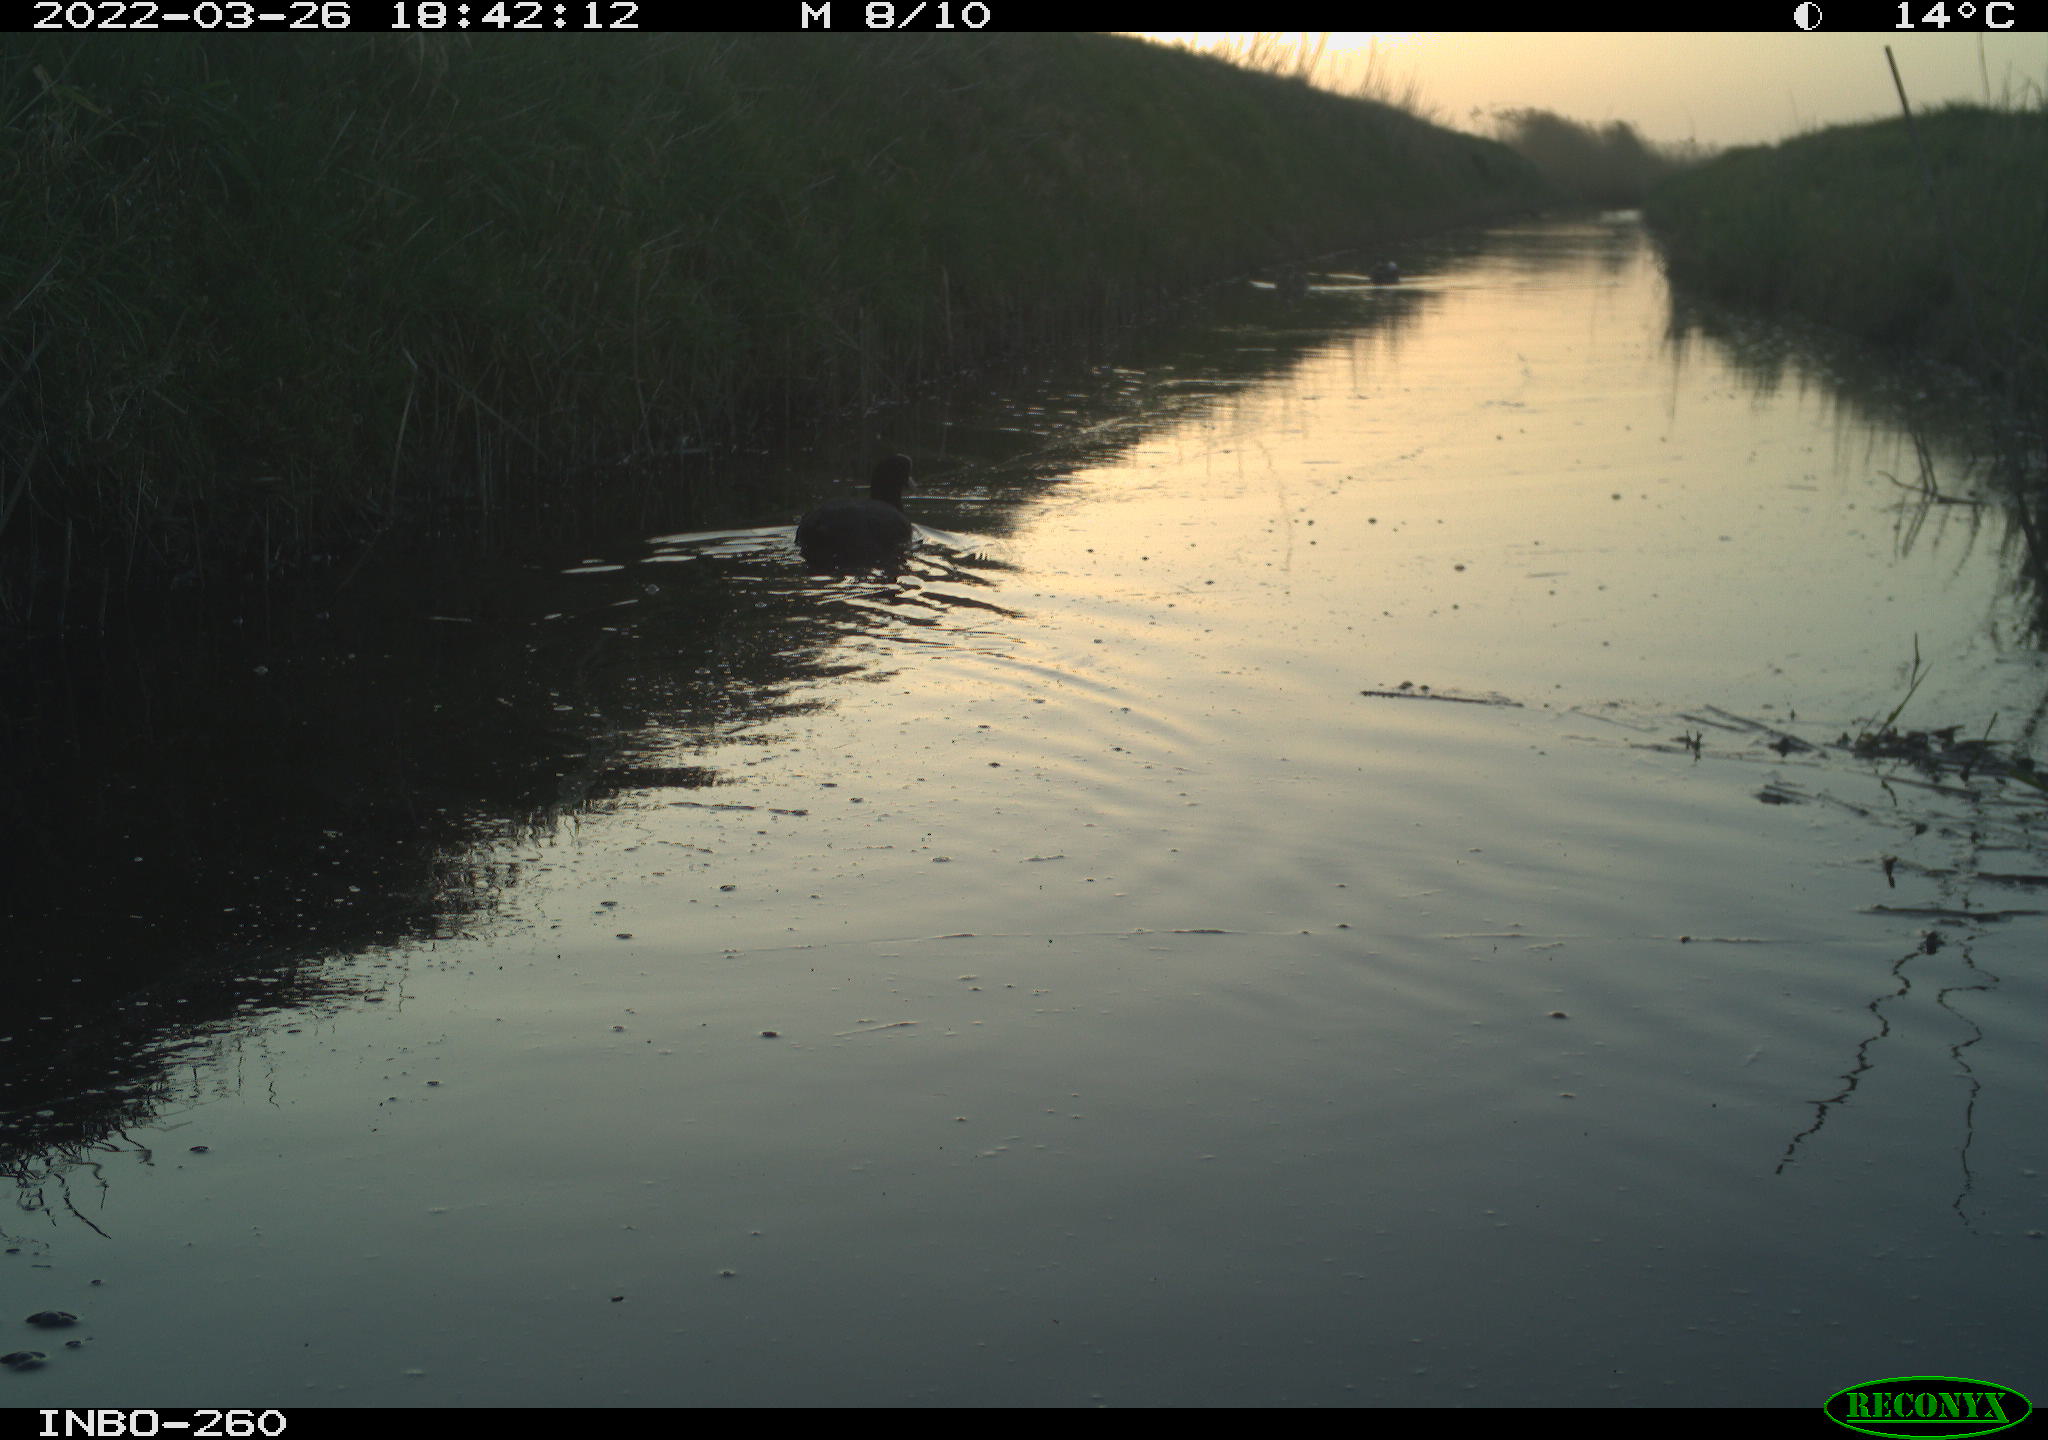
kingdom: Animalia
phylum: Chordata
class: Aves
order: Gruiformes
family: Rallidae
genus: Fulica
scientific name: Fulica atra
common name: Eurasian coot
